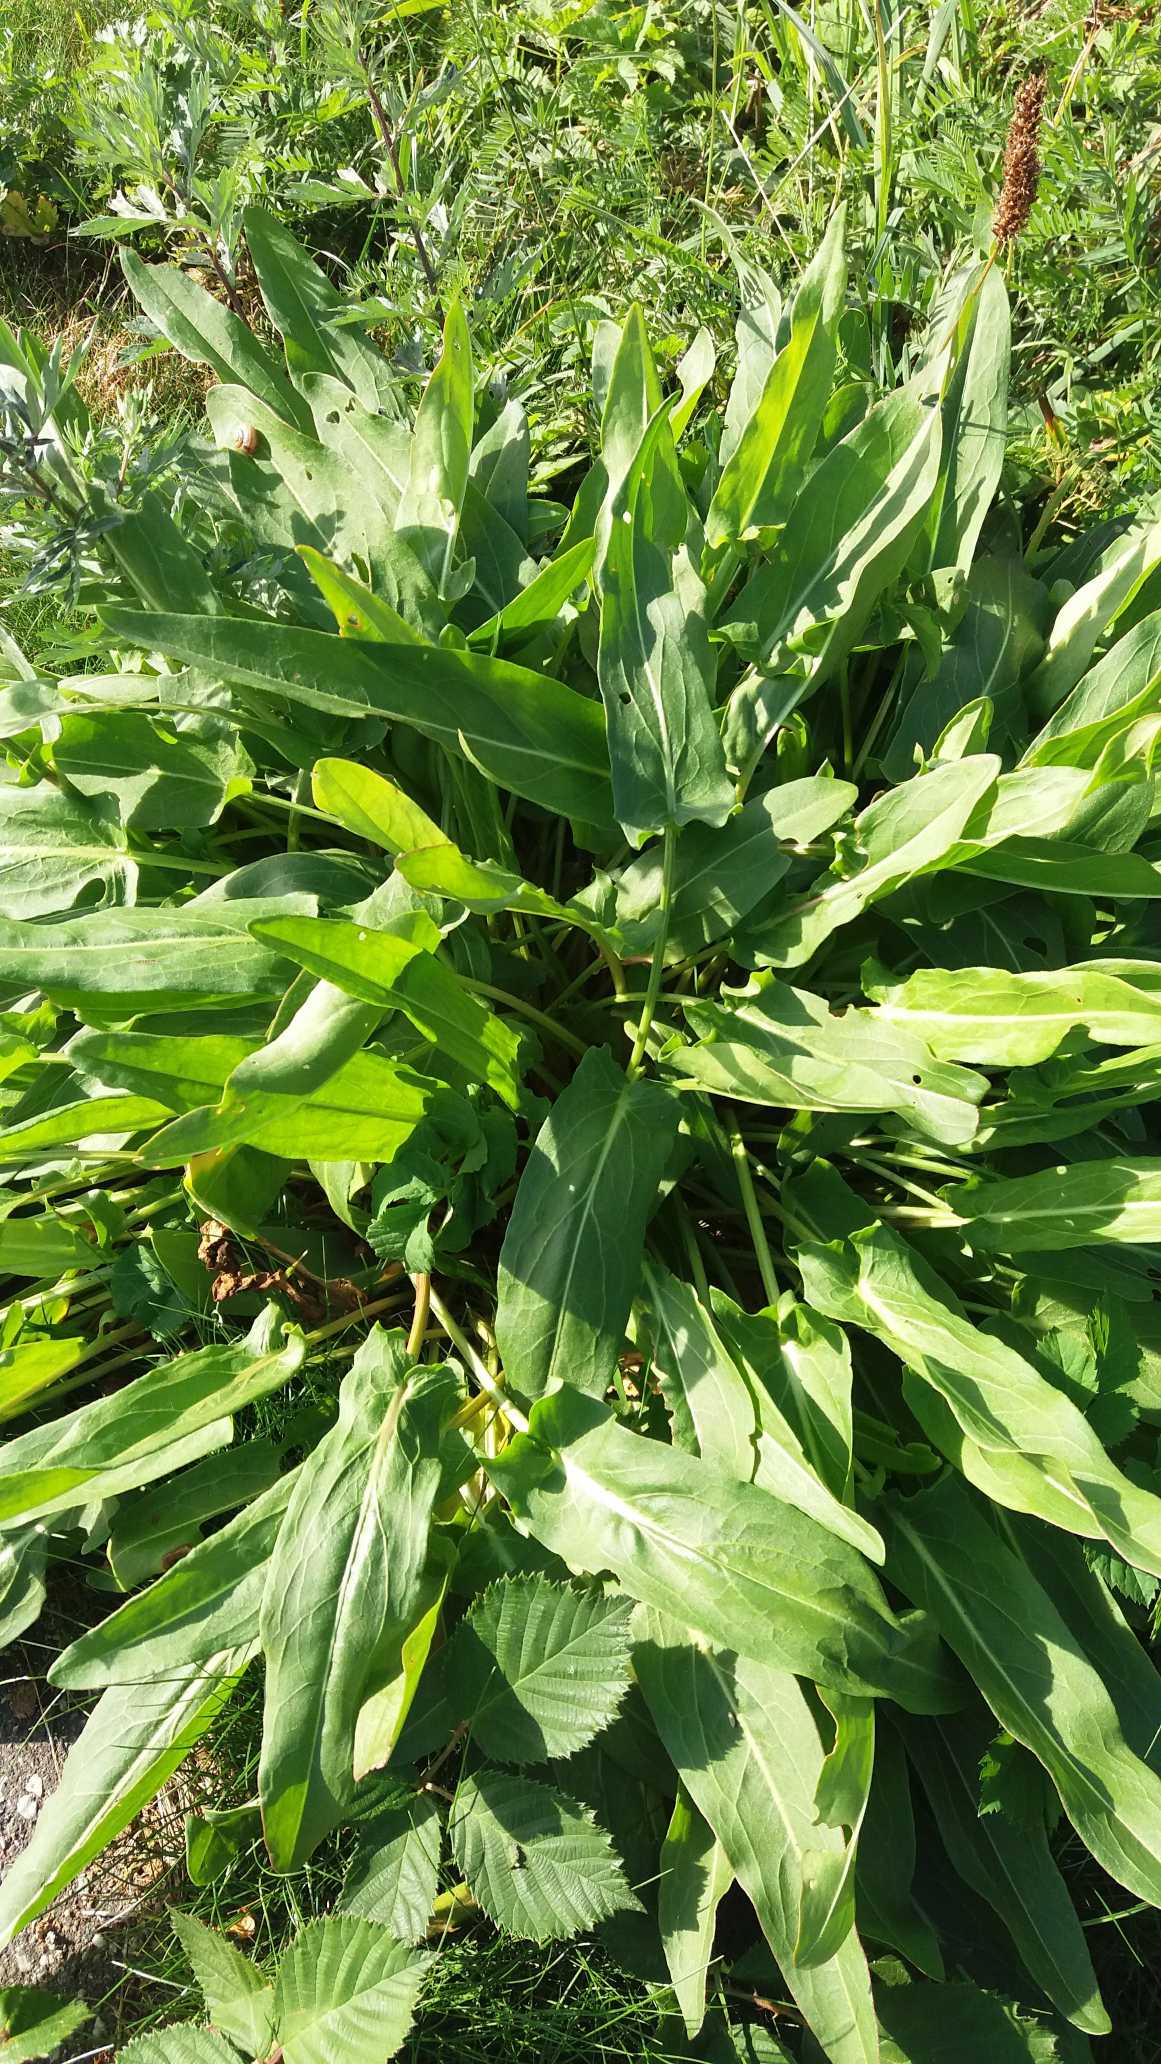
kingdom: Plantae
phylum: Tracheophyta
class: Magnoliopsida
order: Caryophyllales
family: Polygonaceae
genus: Rumex
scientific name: Rumex acetosa
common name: Almindelig syre
